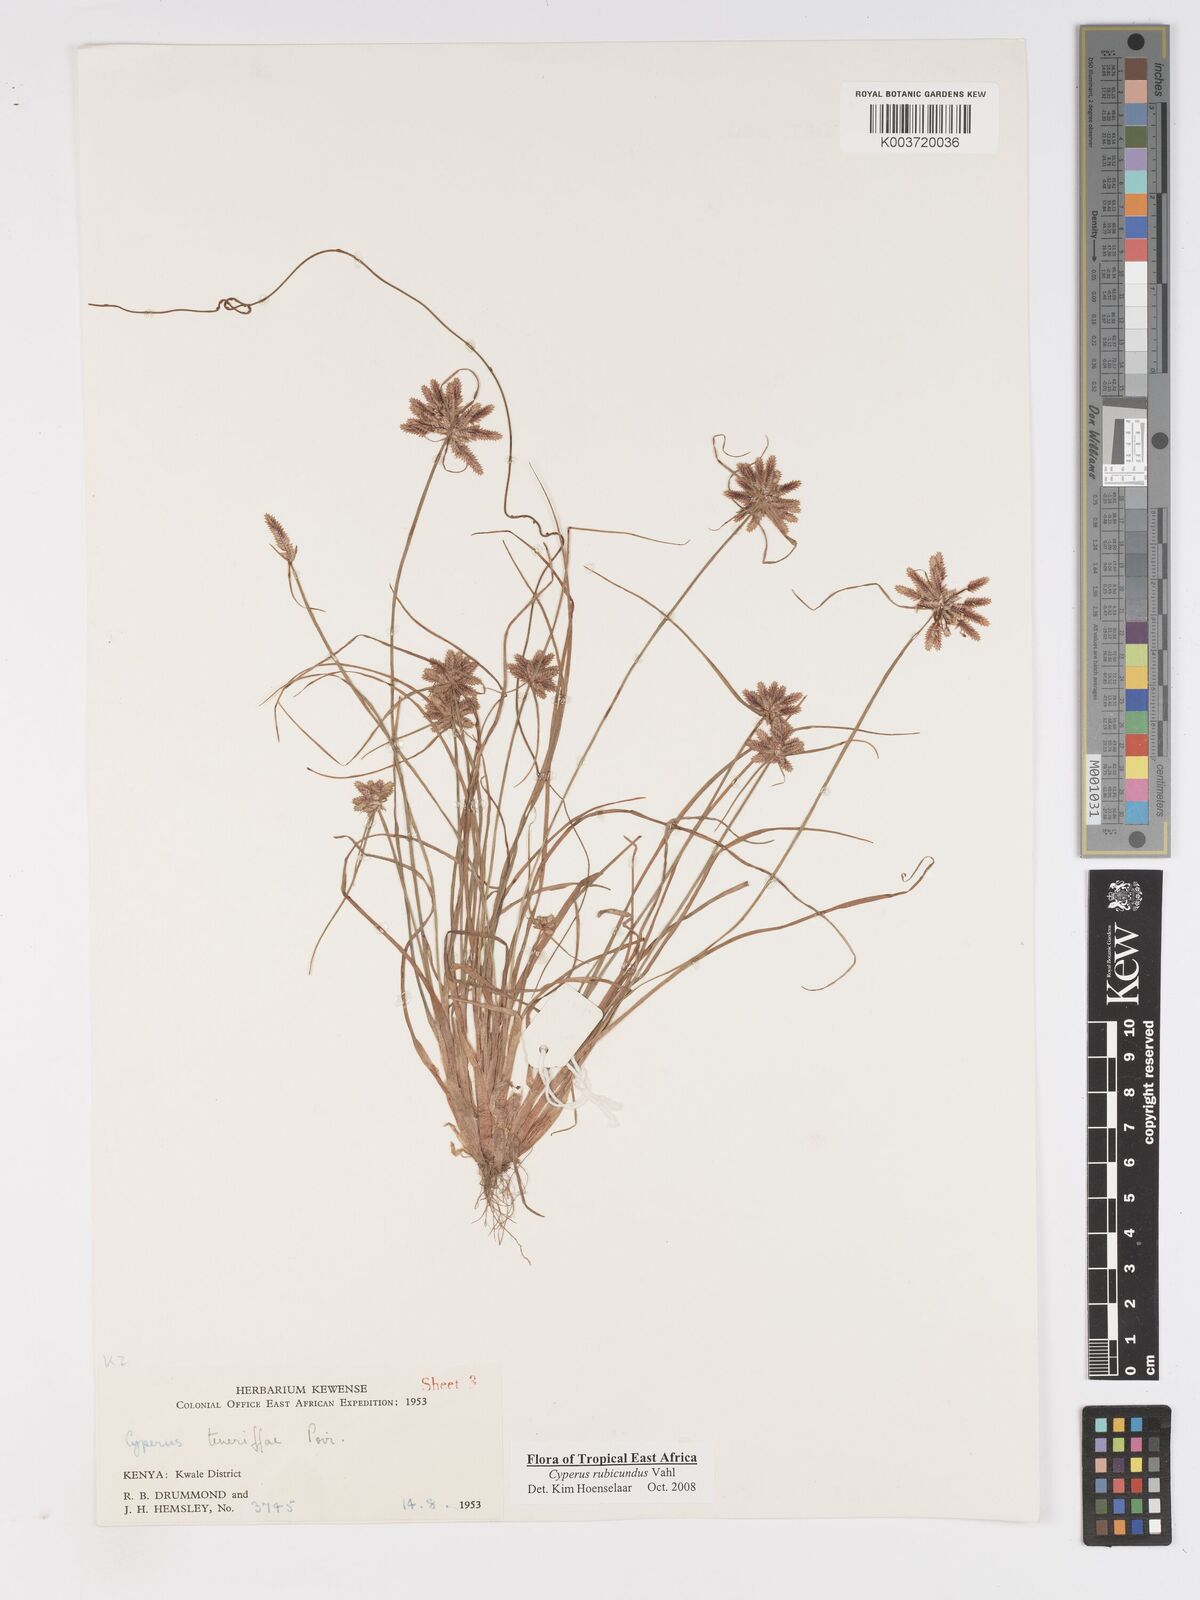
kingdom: Plantae
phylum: Tracheophyta
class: Liliopsida
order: Poales
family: Cyperaceae
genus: Cyperus
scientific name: Cyperus rubicundus
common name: Coco-grass
